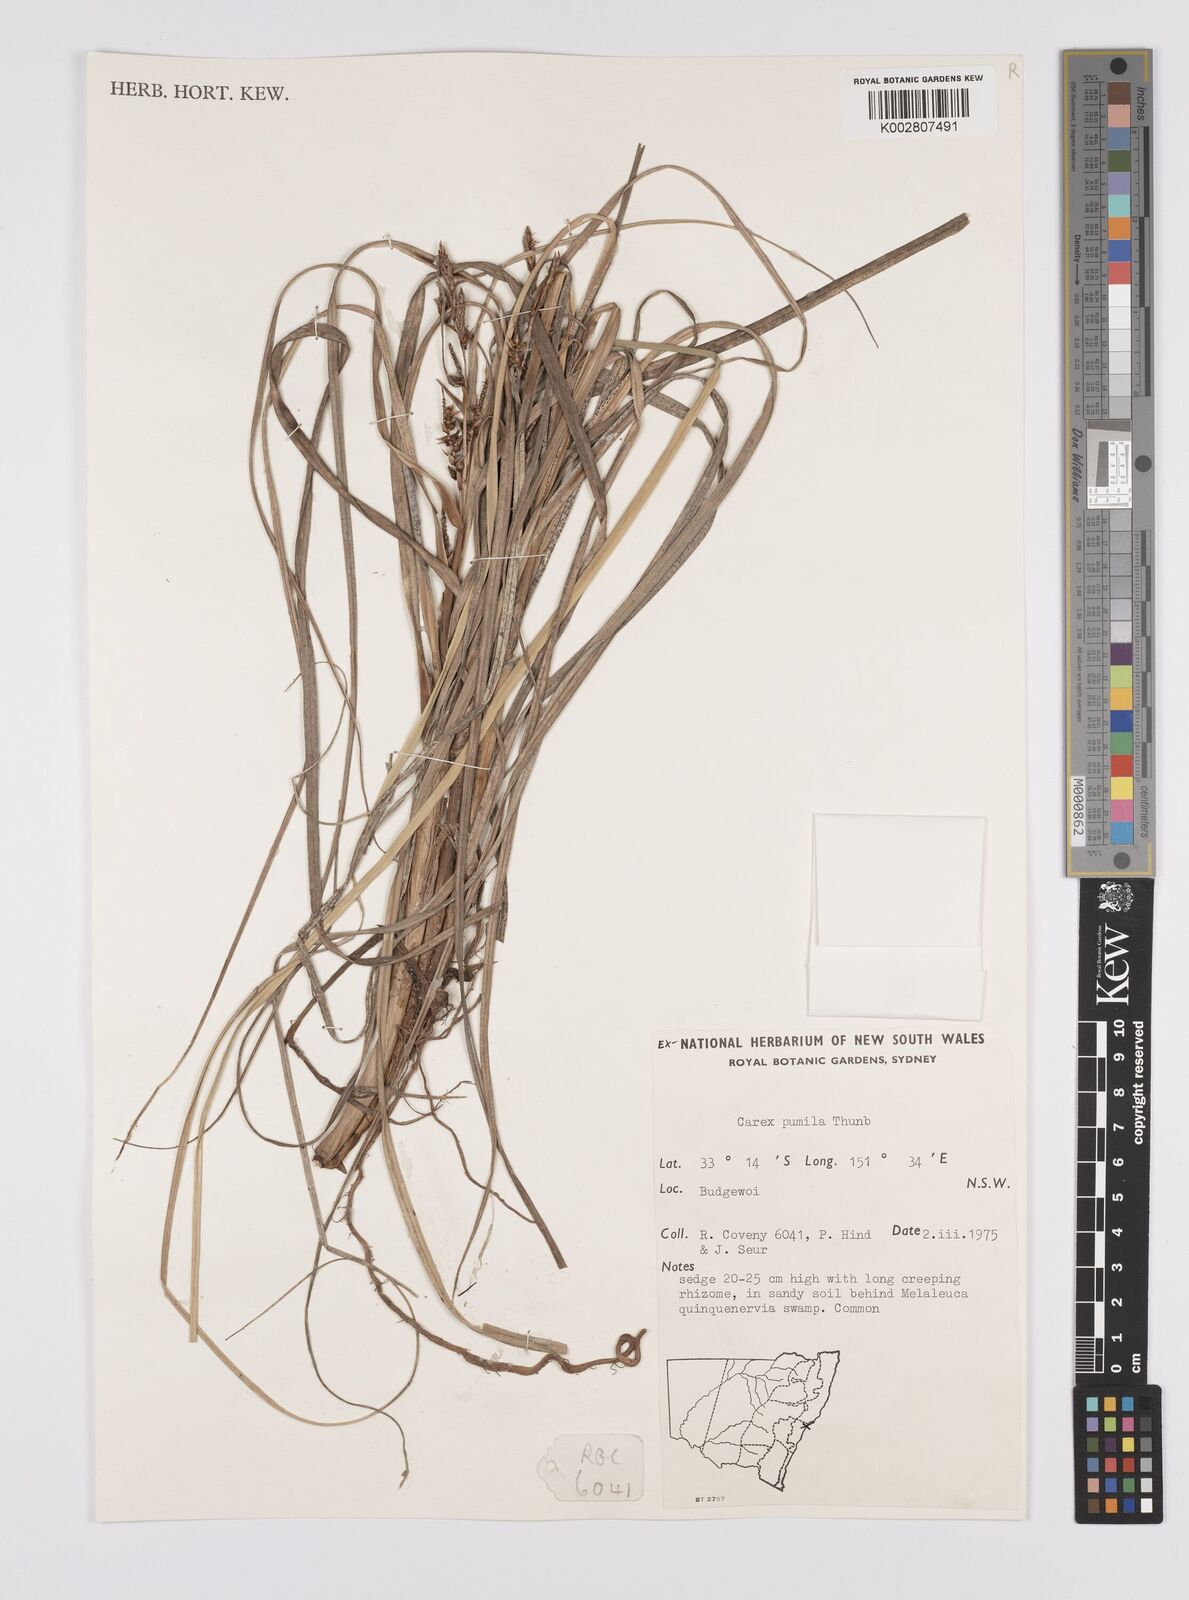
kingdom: Plantae
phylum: Tracheophyta
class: Liliopsida
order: Poales
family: Cyperaceae
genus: Carex
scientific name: Carex pumila
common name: Dwarf sedge
